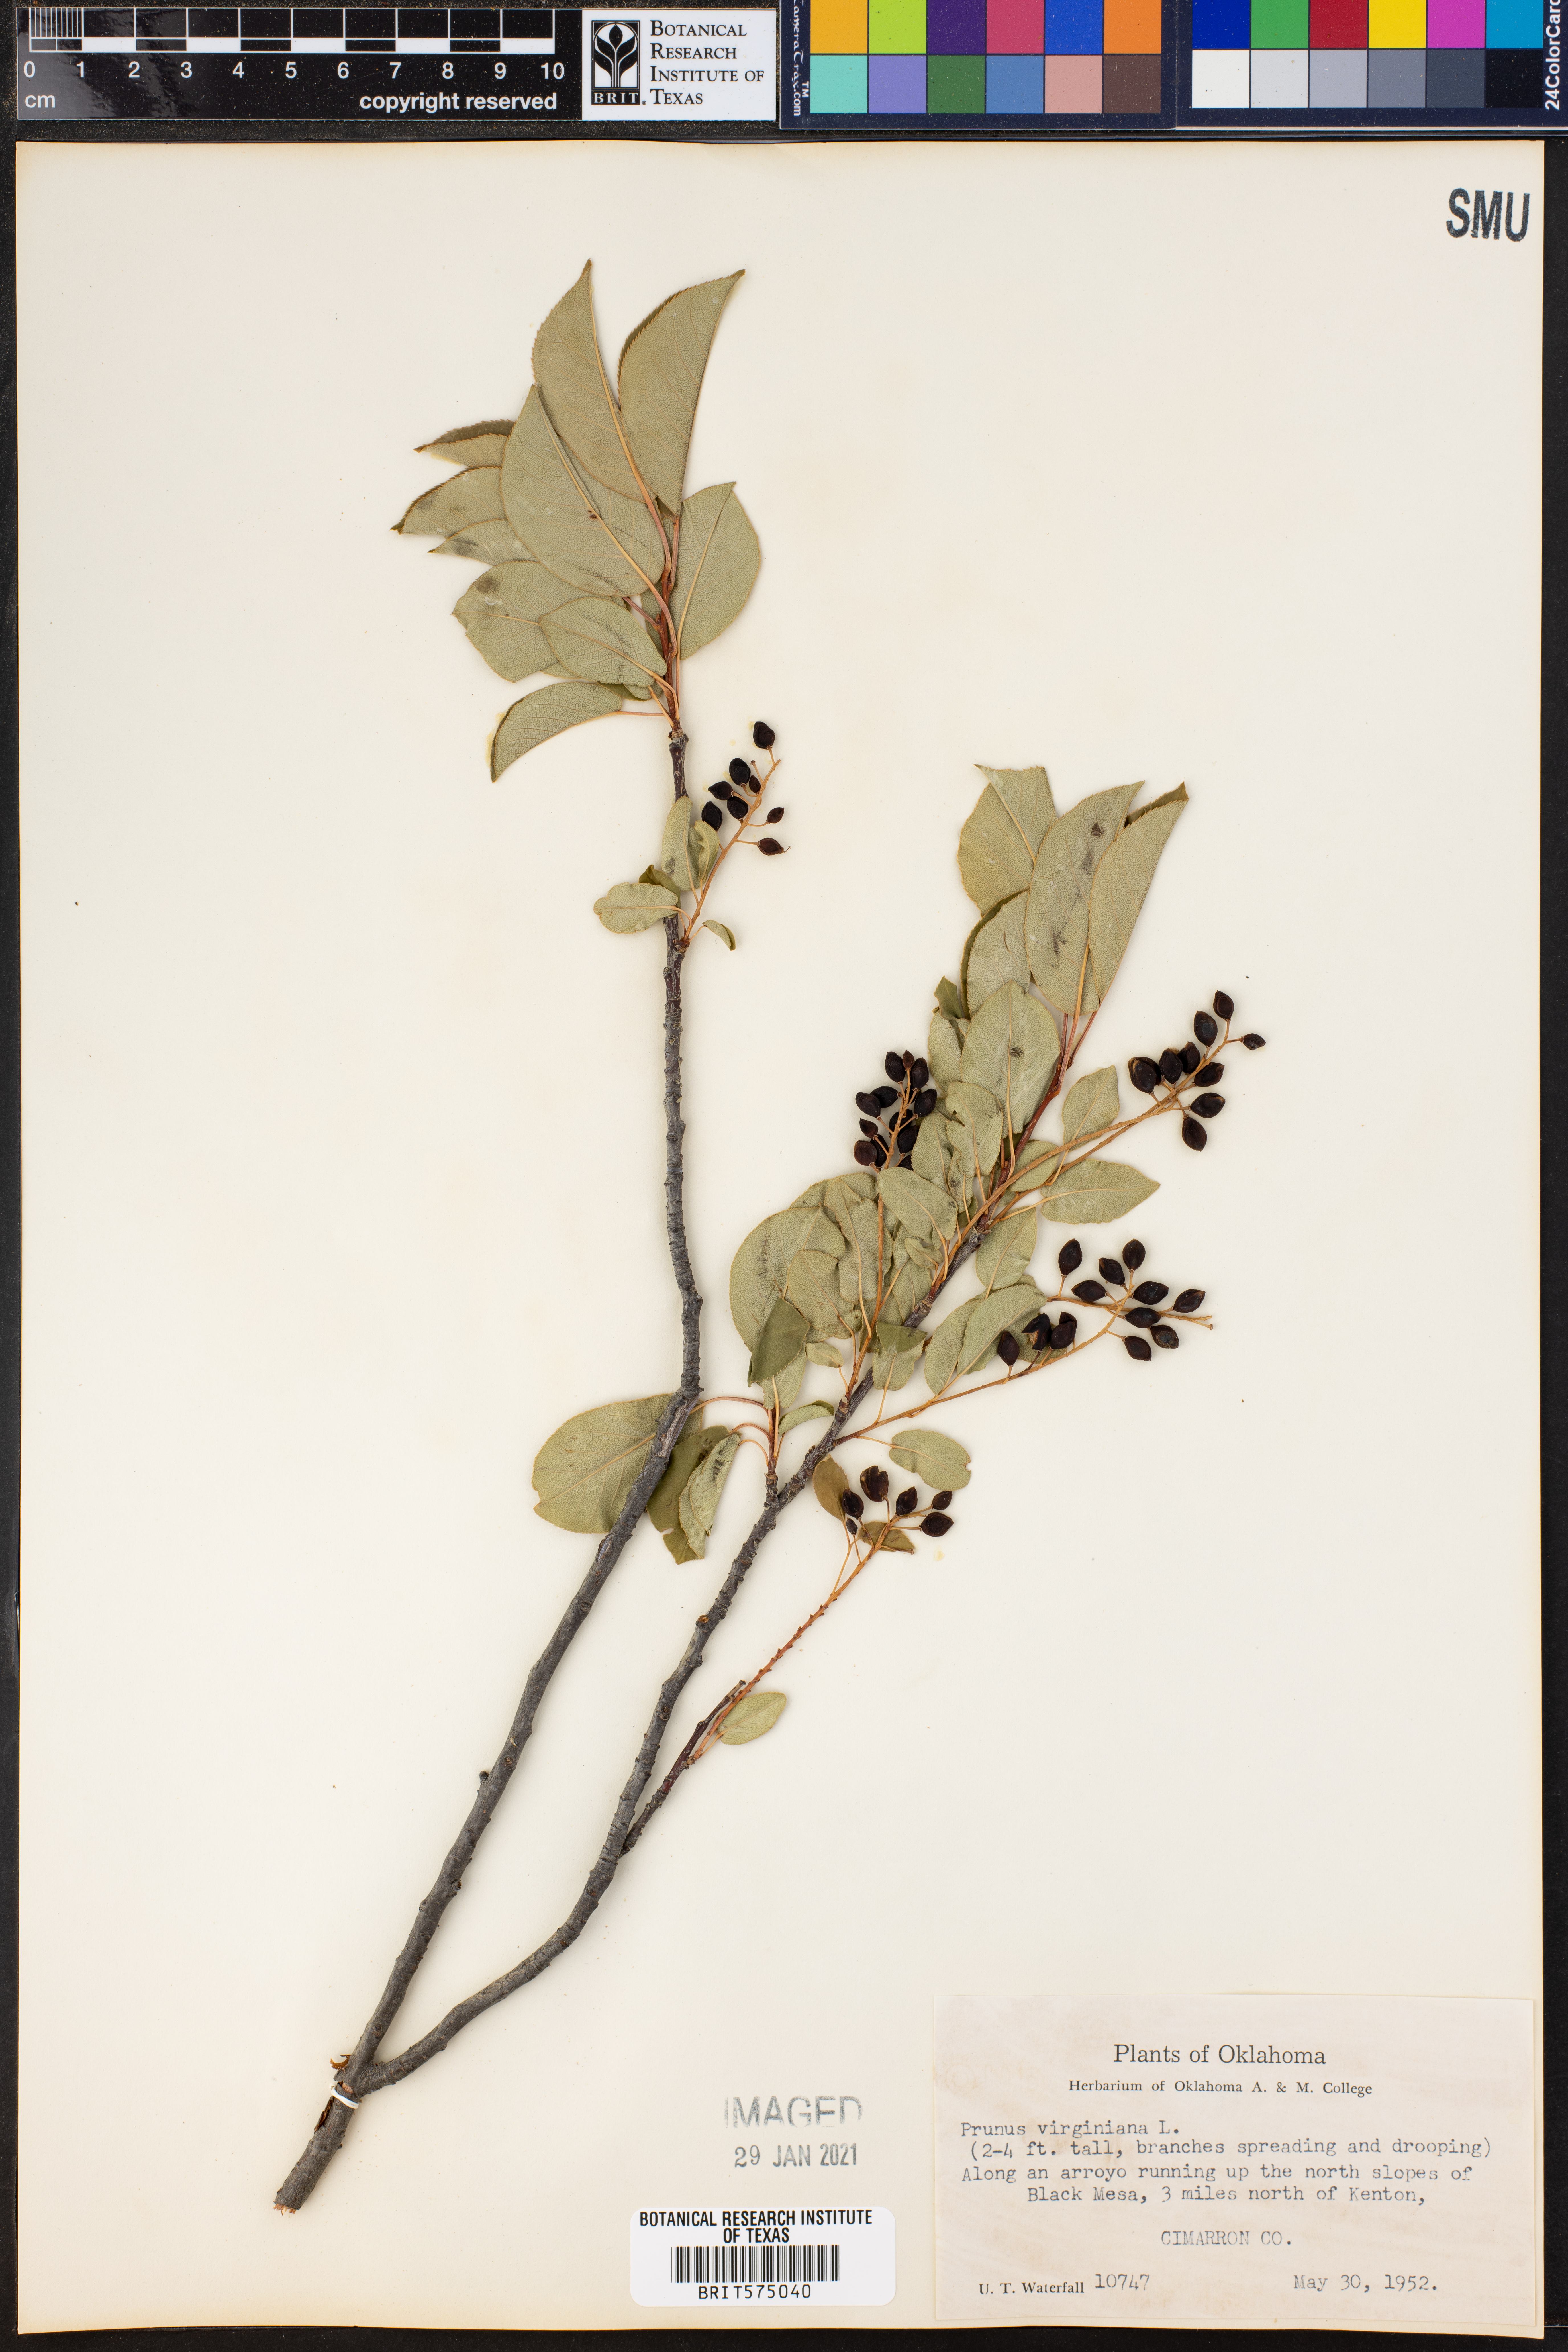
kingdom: Plantae
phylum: Tracheophyta
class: Magnoliopsida
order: Rosales
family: Rosaceae
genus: Prunus
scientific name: Prunus virginiana
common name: Chokecherry
